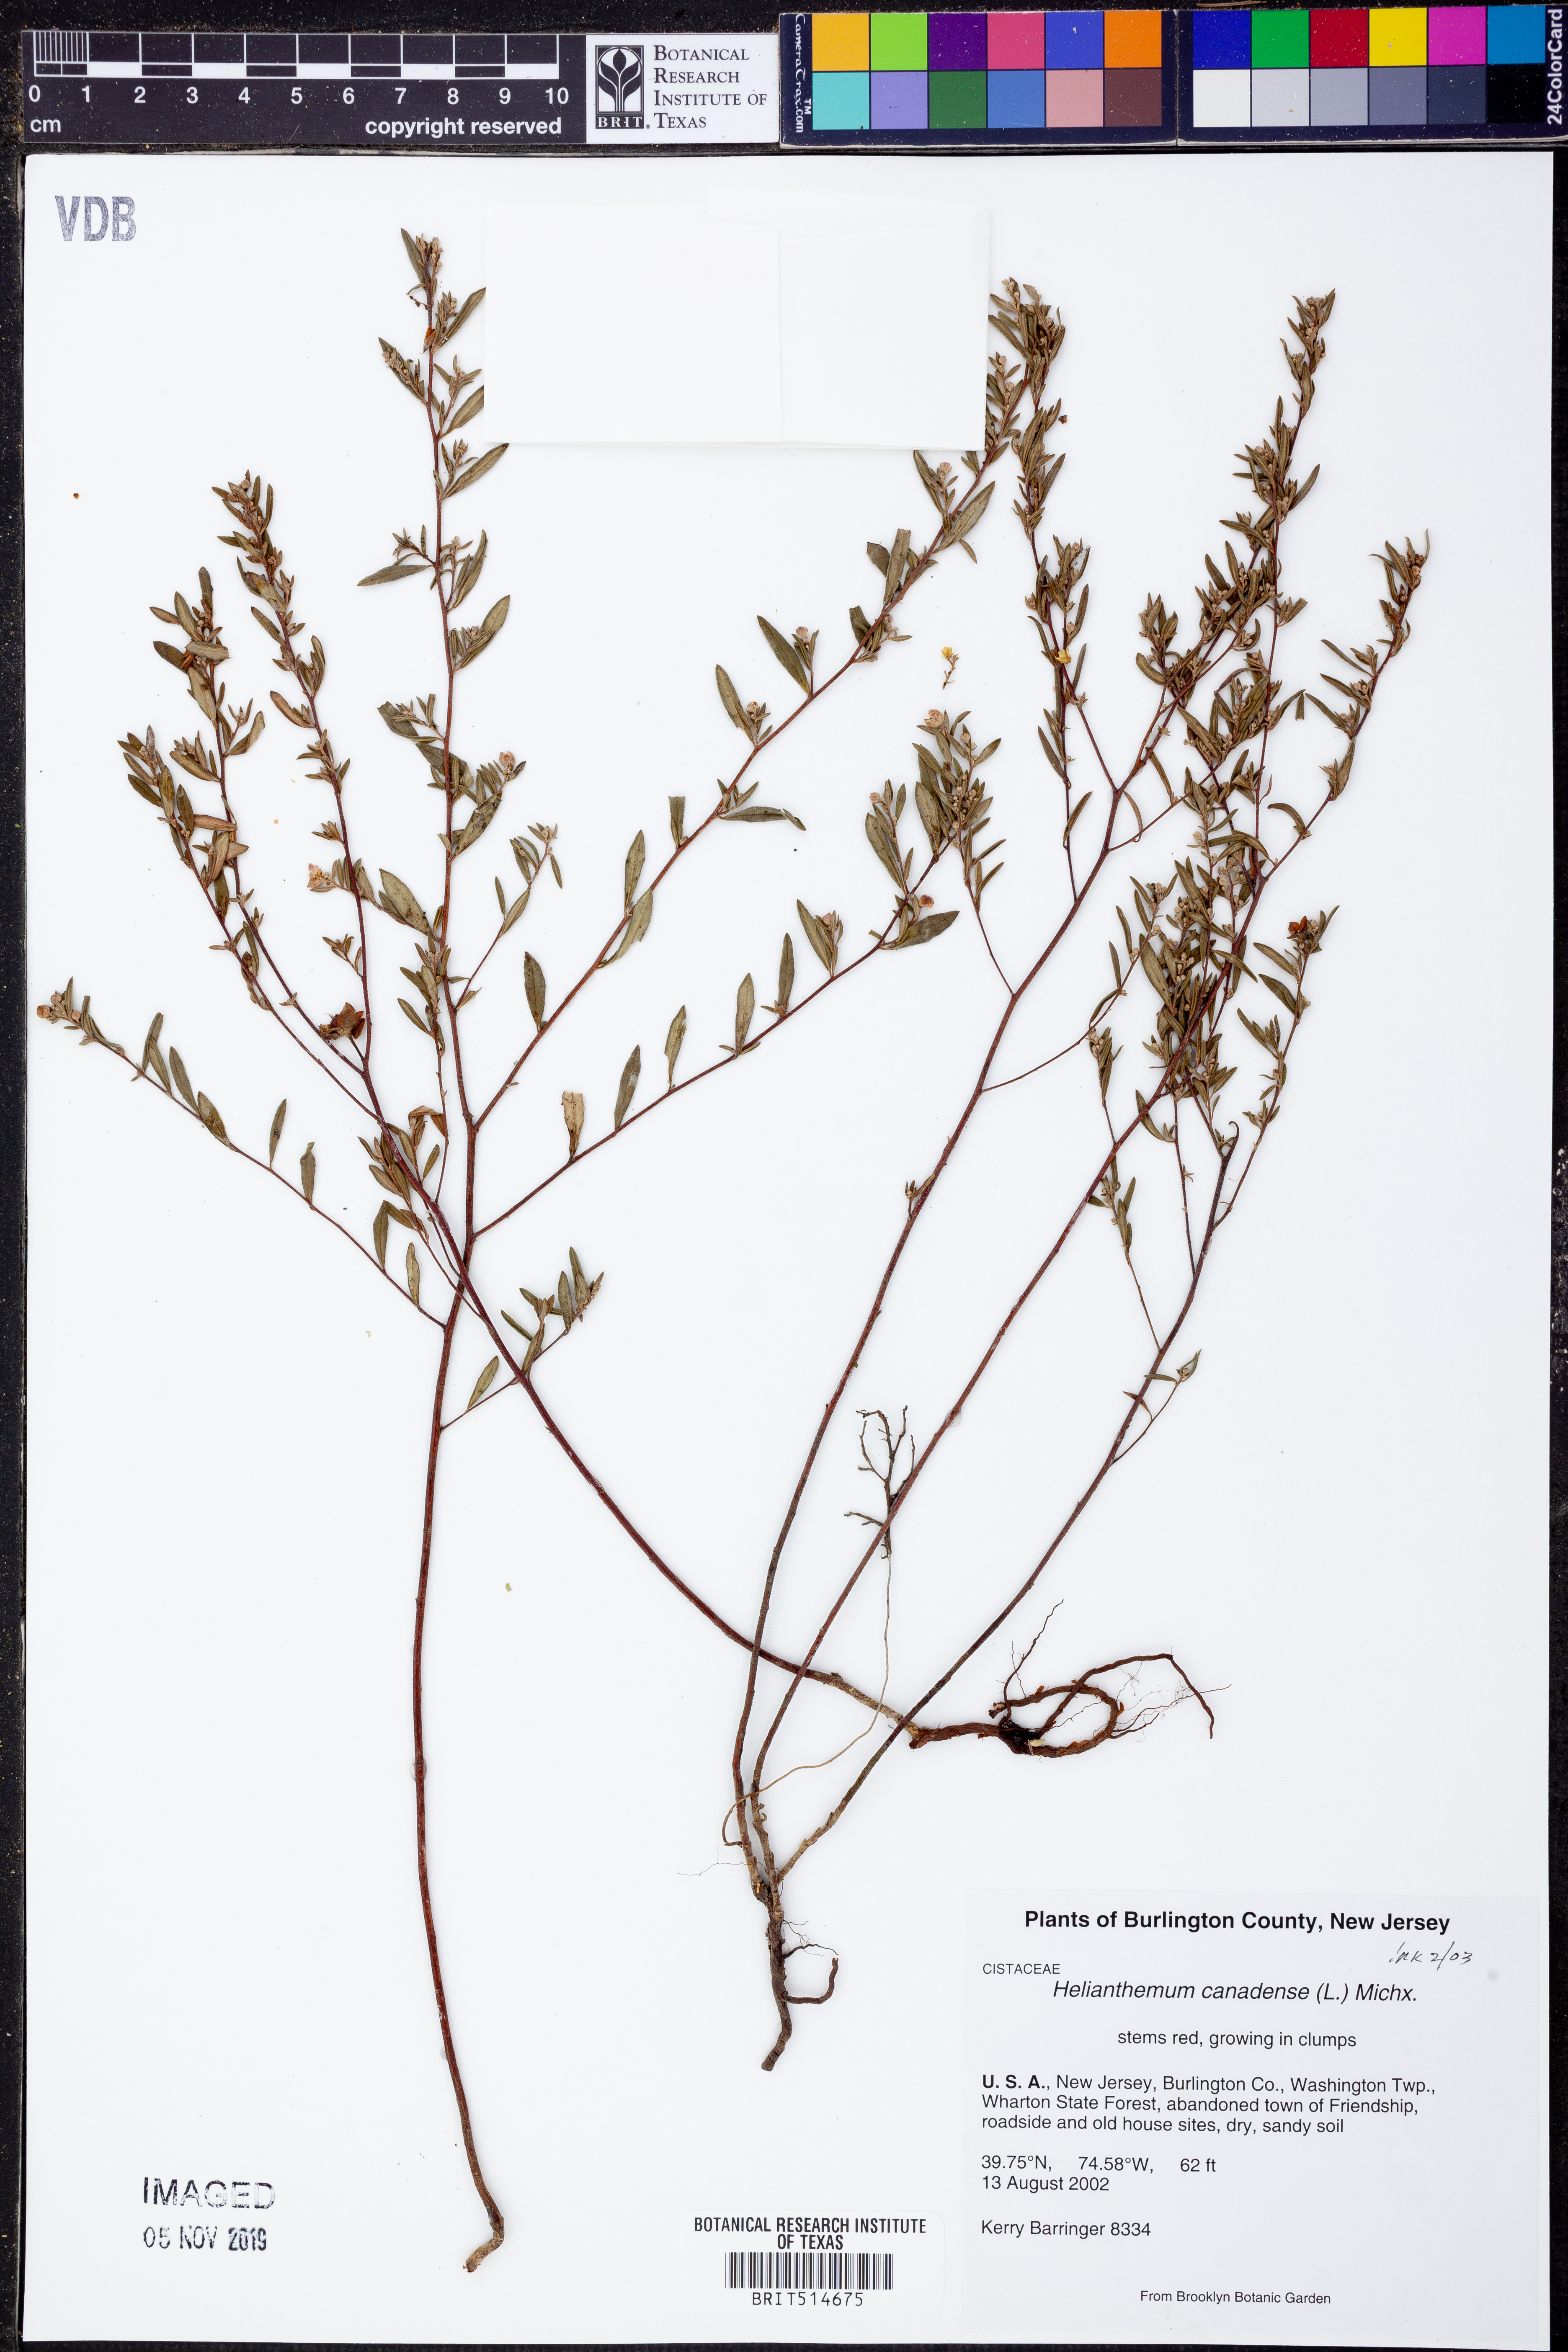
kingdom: Plantae
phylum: Tracheophyta
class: Magnoliopsida
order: Malvales
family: Cistaceae
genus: Crocanthemum
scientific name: Crocanthemum canadense
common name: Canada frostweed
